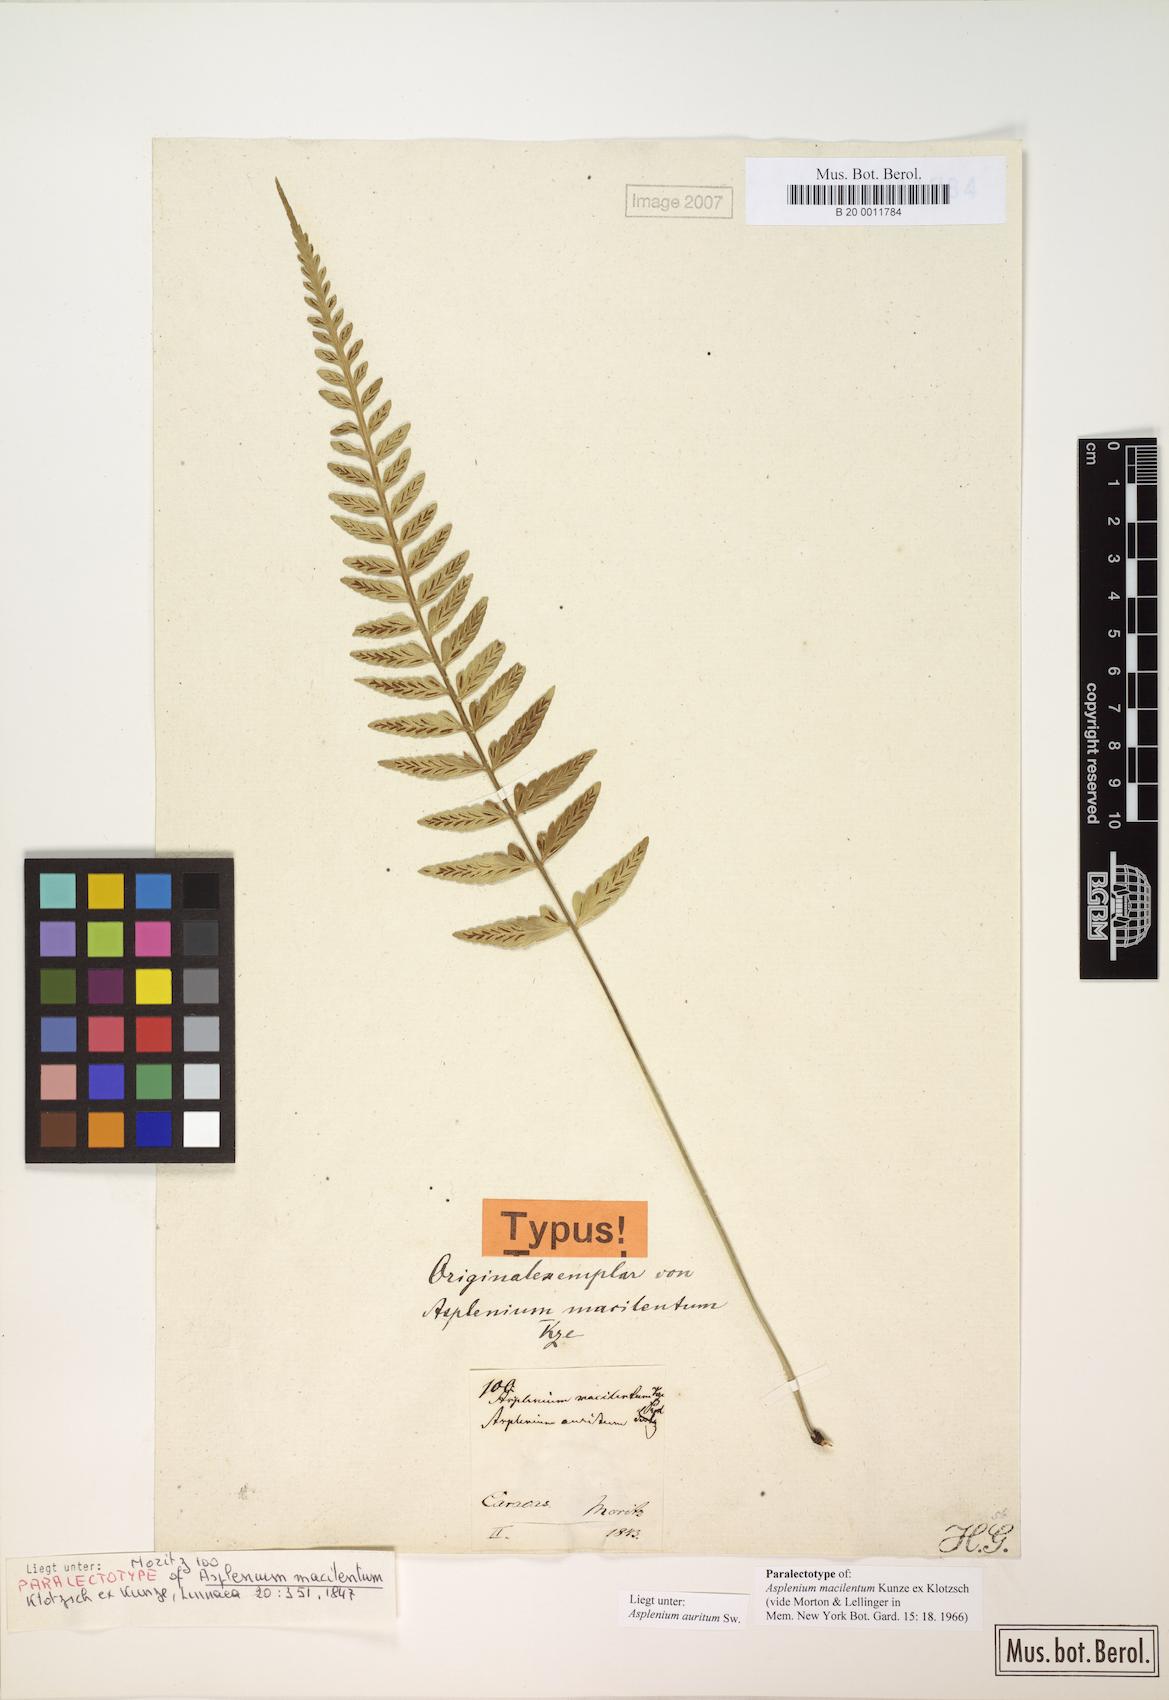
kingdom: Plantae
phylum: Tracheophyta
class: Polypodiopsida
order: Polypodiales
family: Aspleniaceae
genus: Asplenium
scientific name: Asplenium auritum
